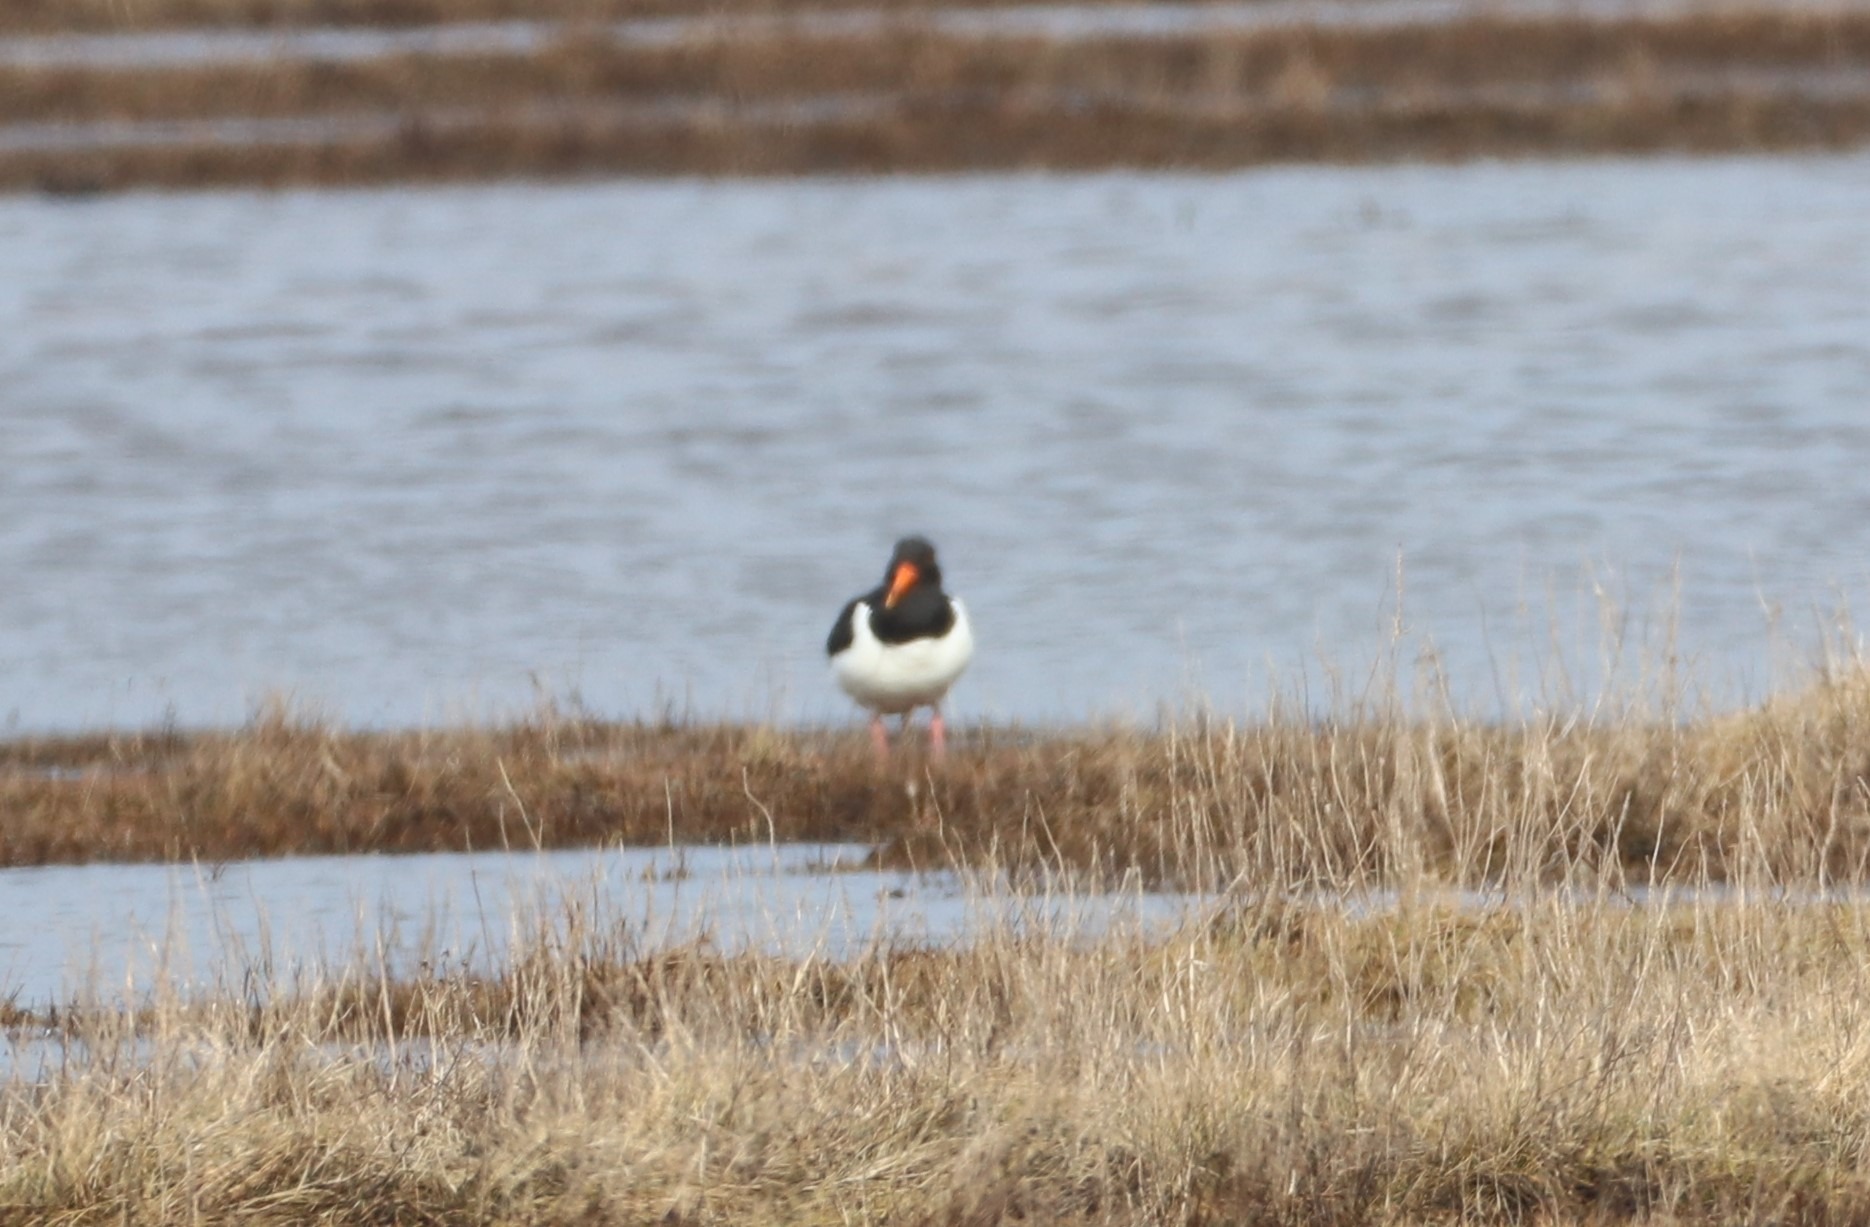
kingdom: Animalia
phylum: Chordata
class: Aves
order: Charadriiformes
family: Haematopodidae
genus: Haematopus
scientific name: Haematopus ostralegus
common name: Strandskade
